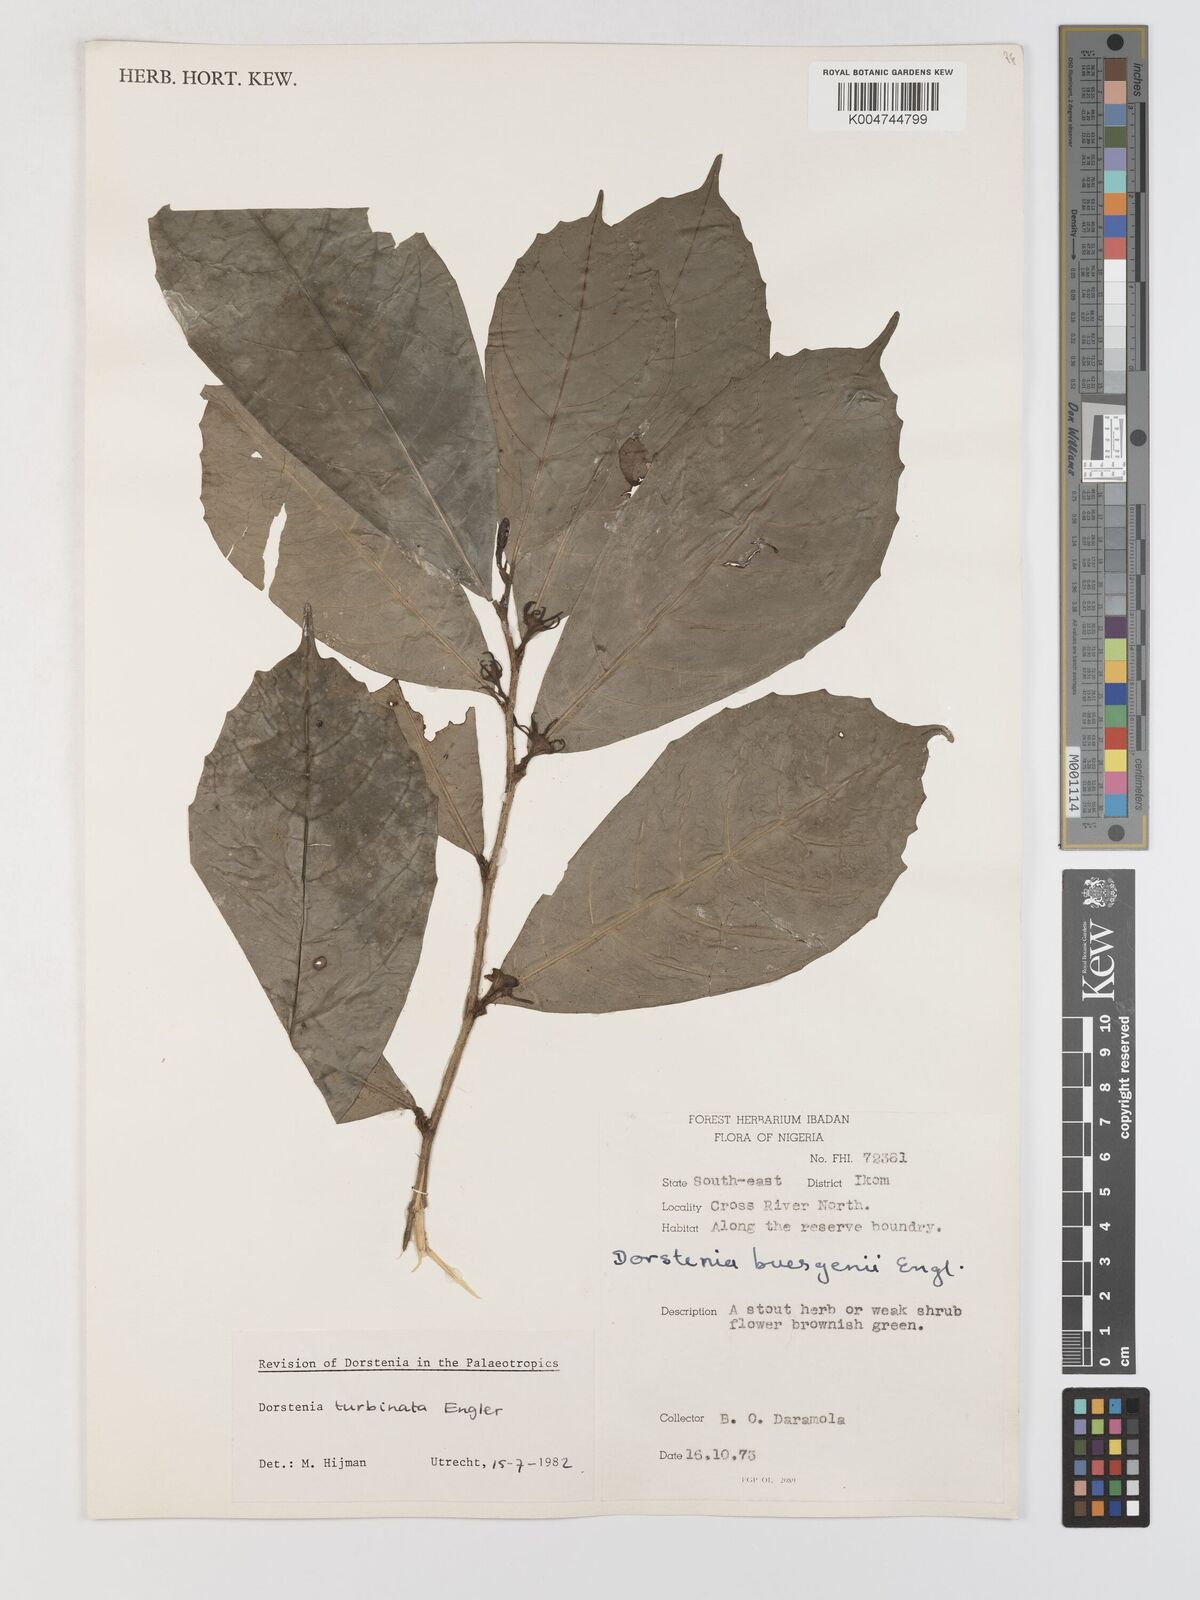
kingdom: Plantae
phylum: Tracheophyta
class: Magnoliopsida
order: Rosales
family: Moraceae
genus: Hijmania
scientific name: Hijmania turbinata
